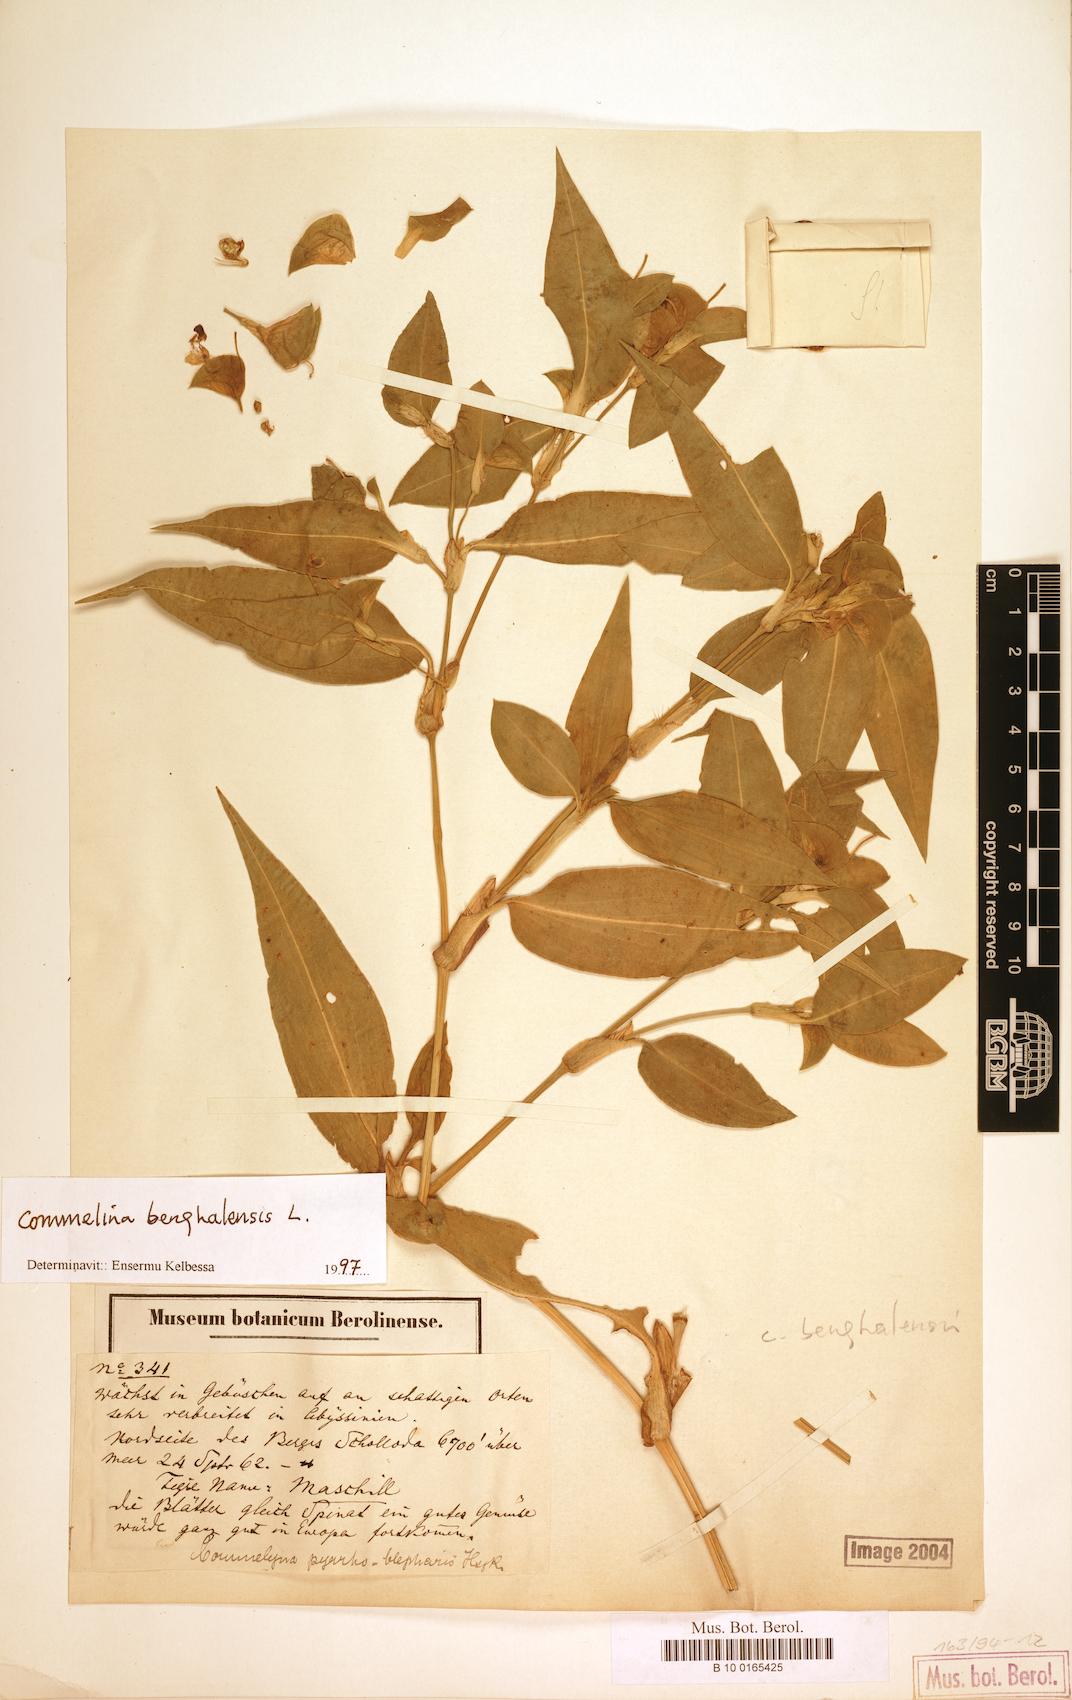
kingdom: Plantae
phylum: Tracheophyta
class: Liliopsida
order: Commelinales
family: Commelinaceae
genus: Commelina
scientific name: Commelina benghalensis
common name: Jio
